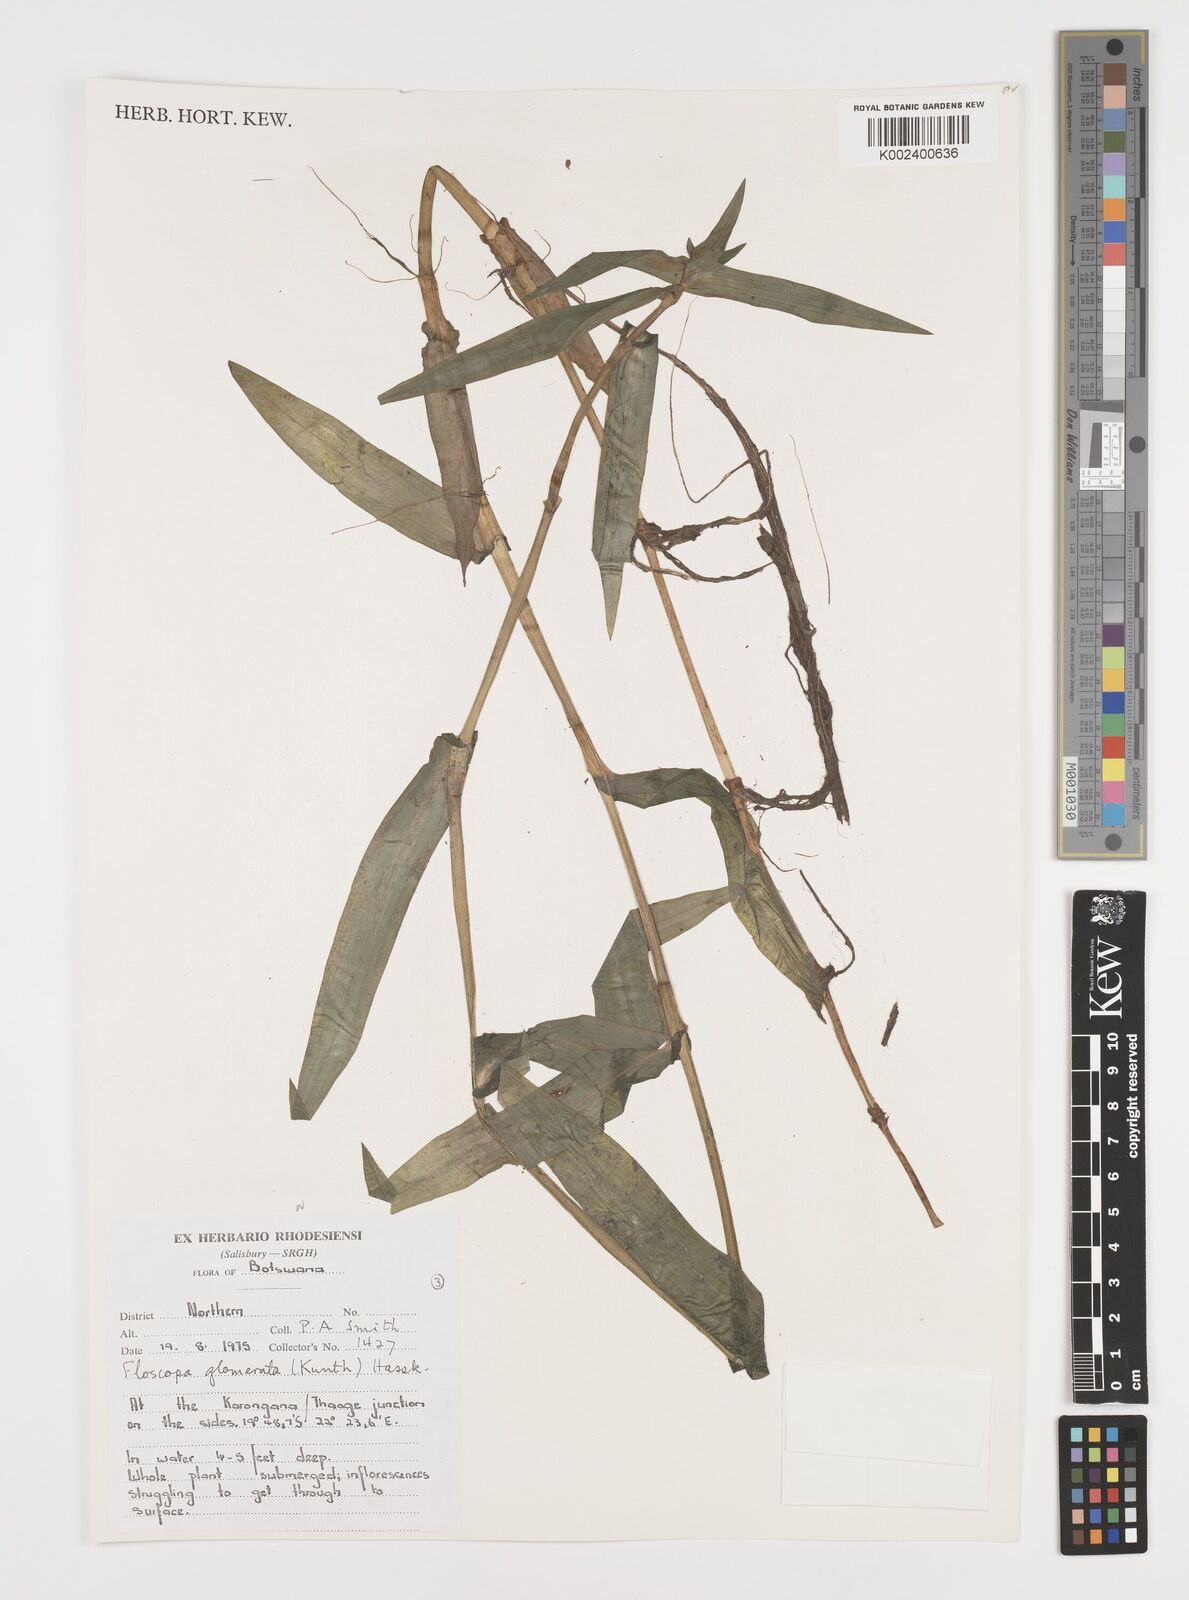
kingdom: Plantae
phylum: Tracheophyta
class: Liliopsida
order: Commelinales
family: Commelinaceae
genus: Floscopa
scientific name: Floscopa glomerata
